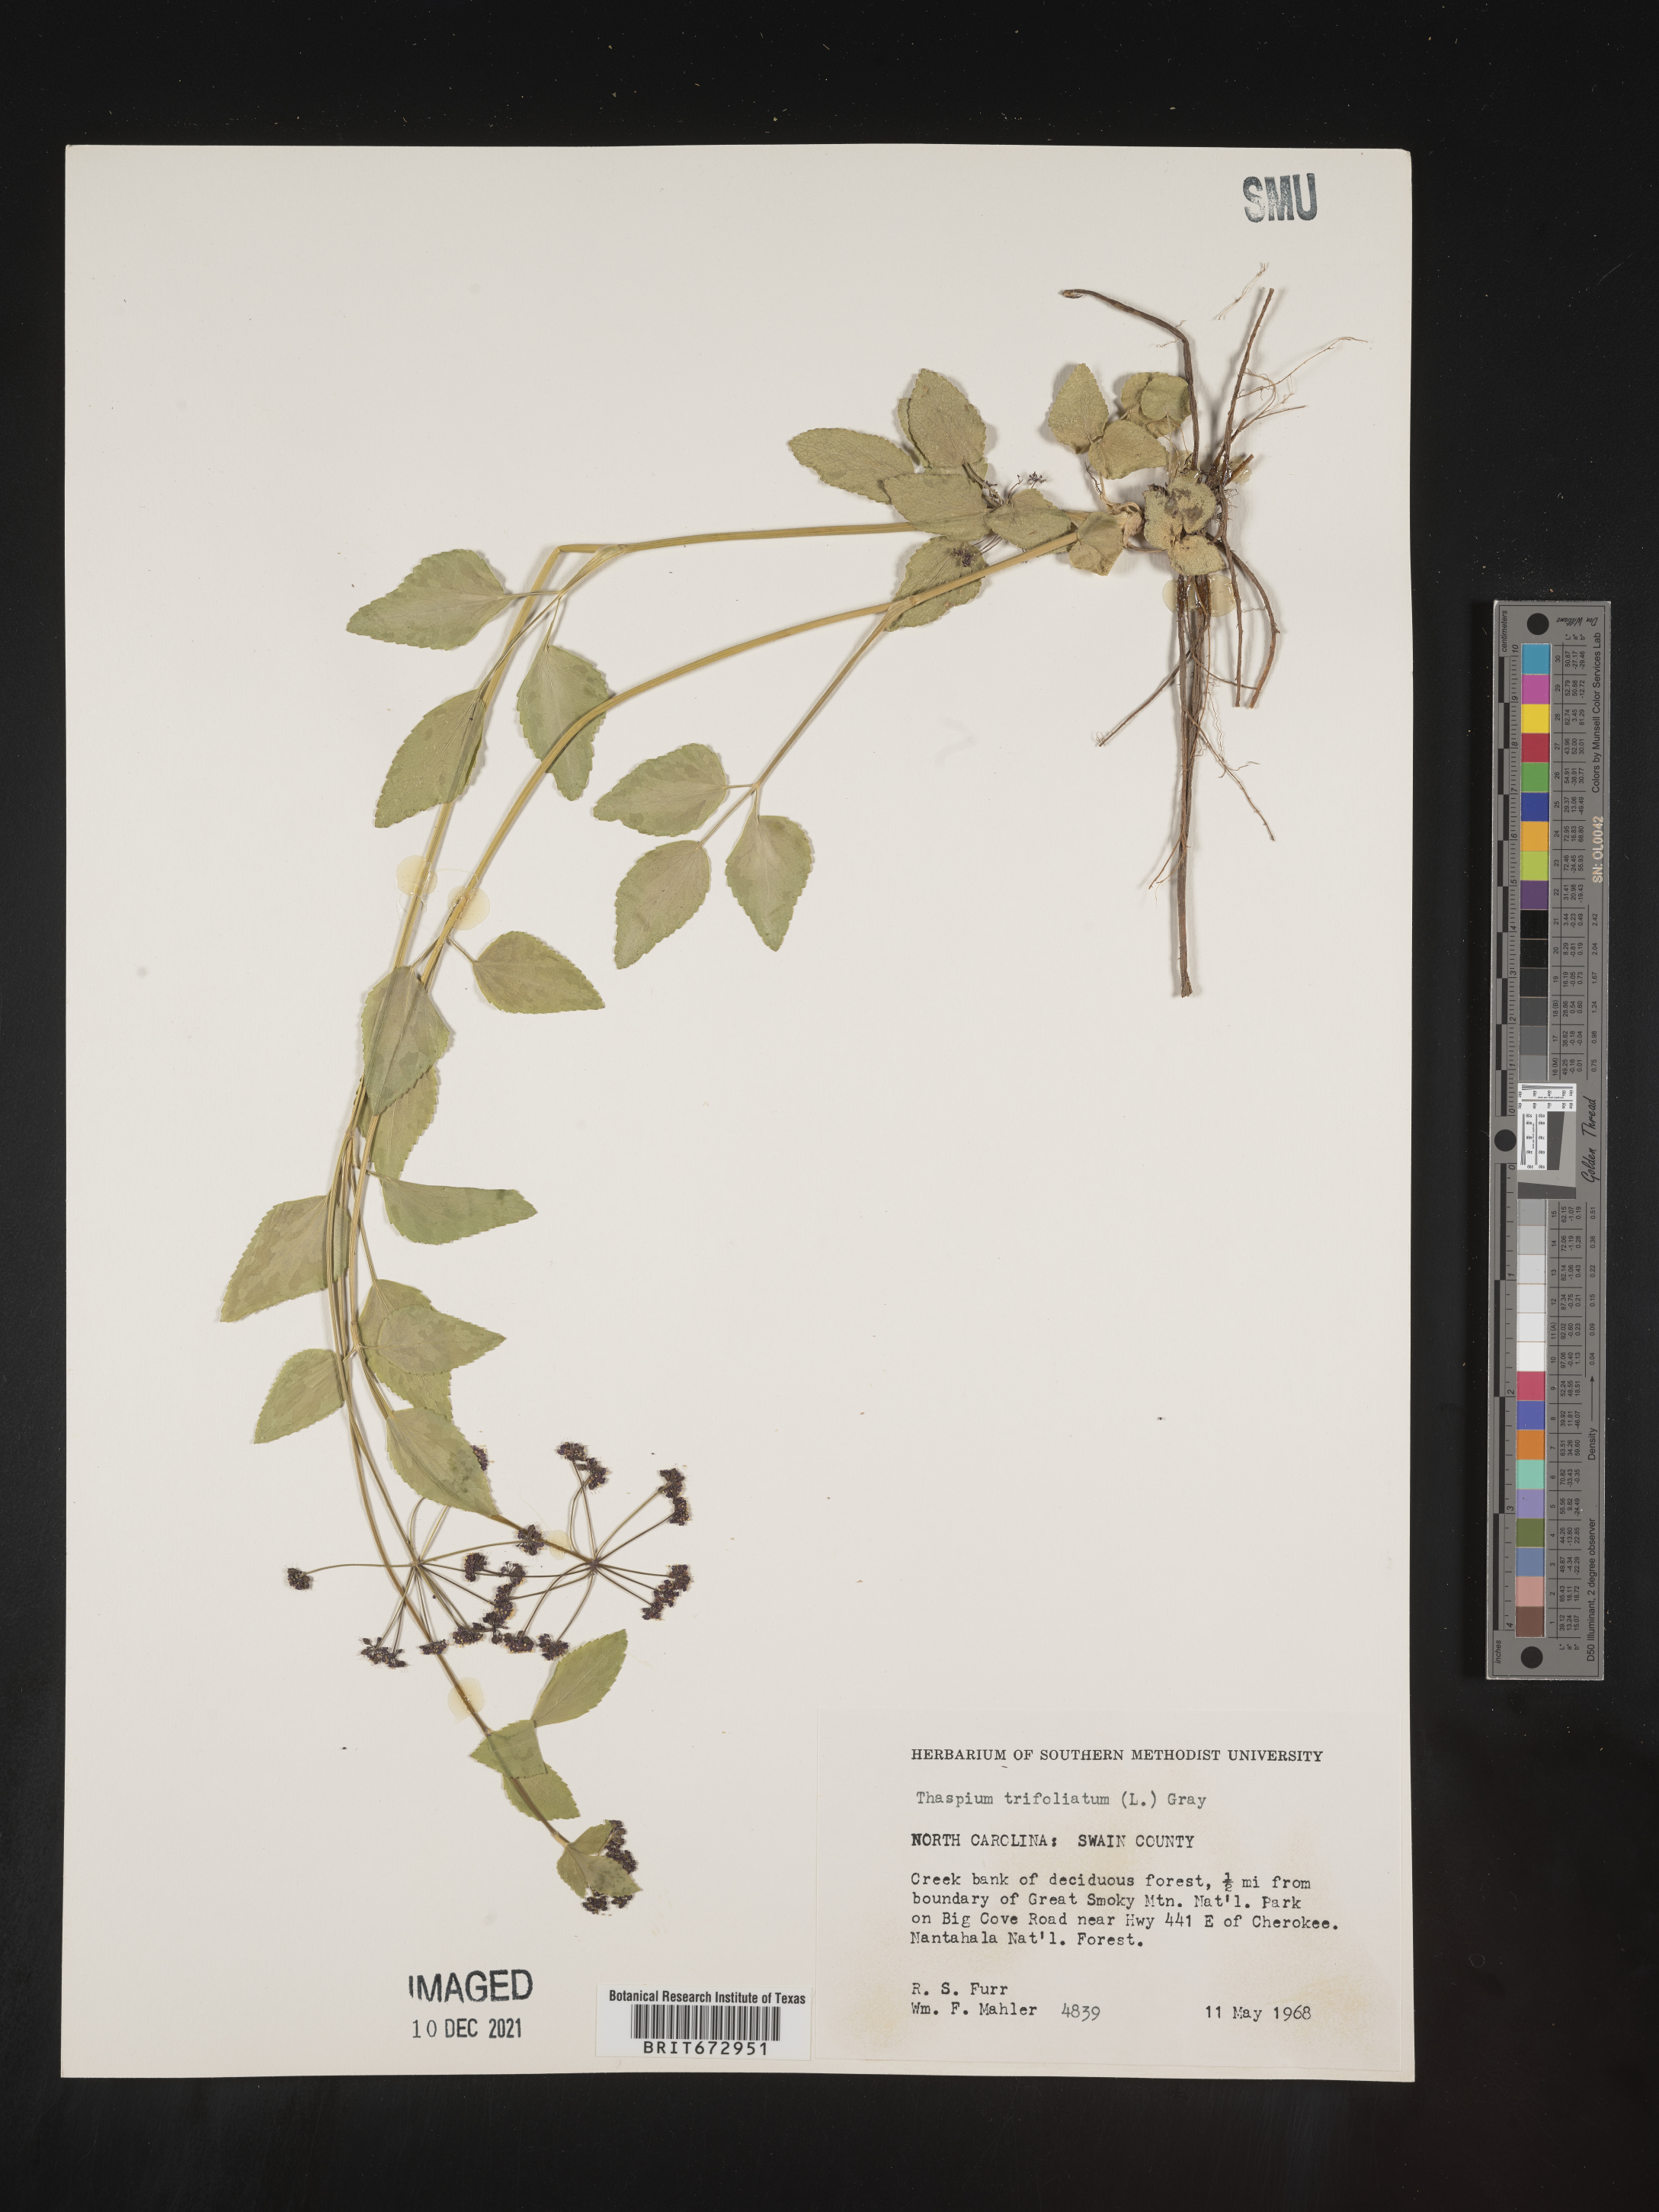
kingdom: Plantae
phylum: Tracheophyta
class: Magnoliopsida
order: Apiales
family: Apiaceae
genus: Thaspium
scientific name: Thaspium
